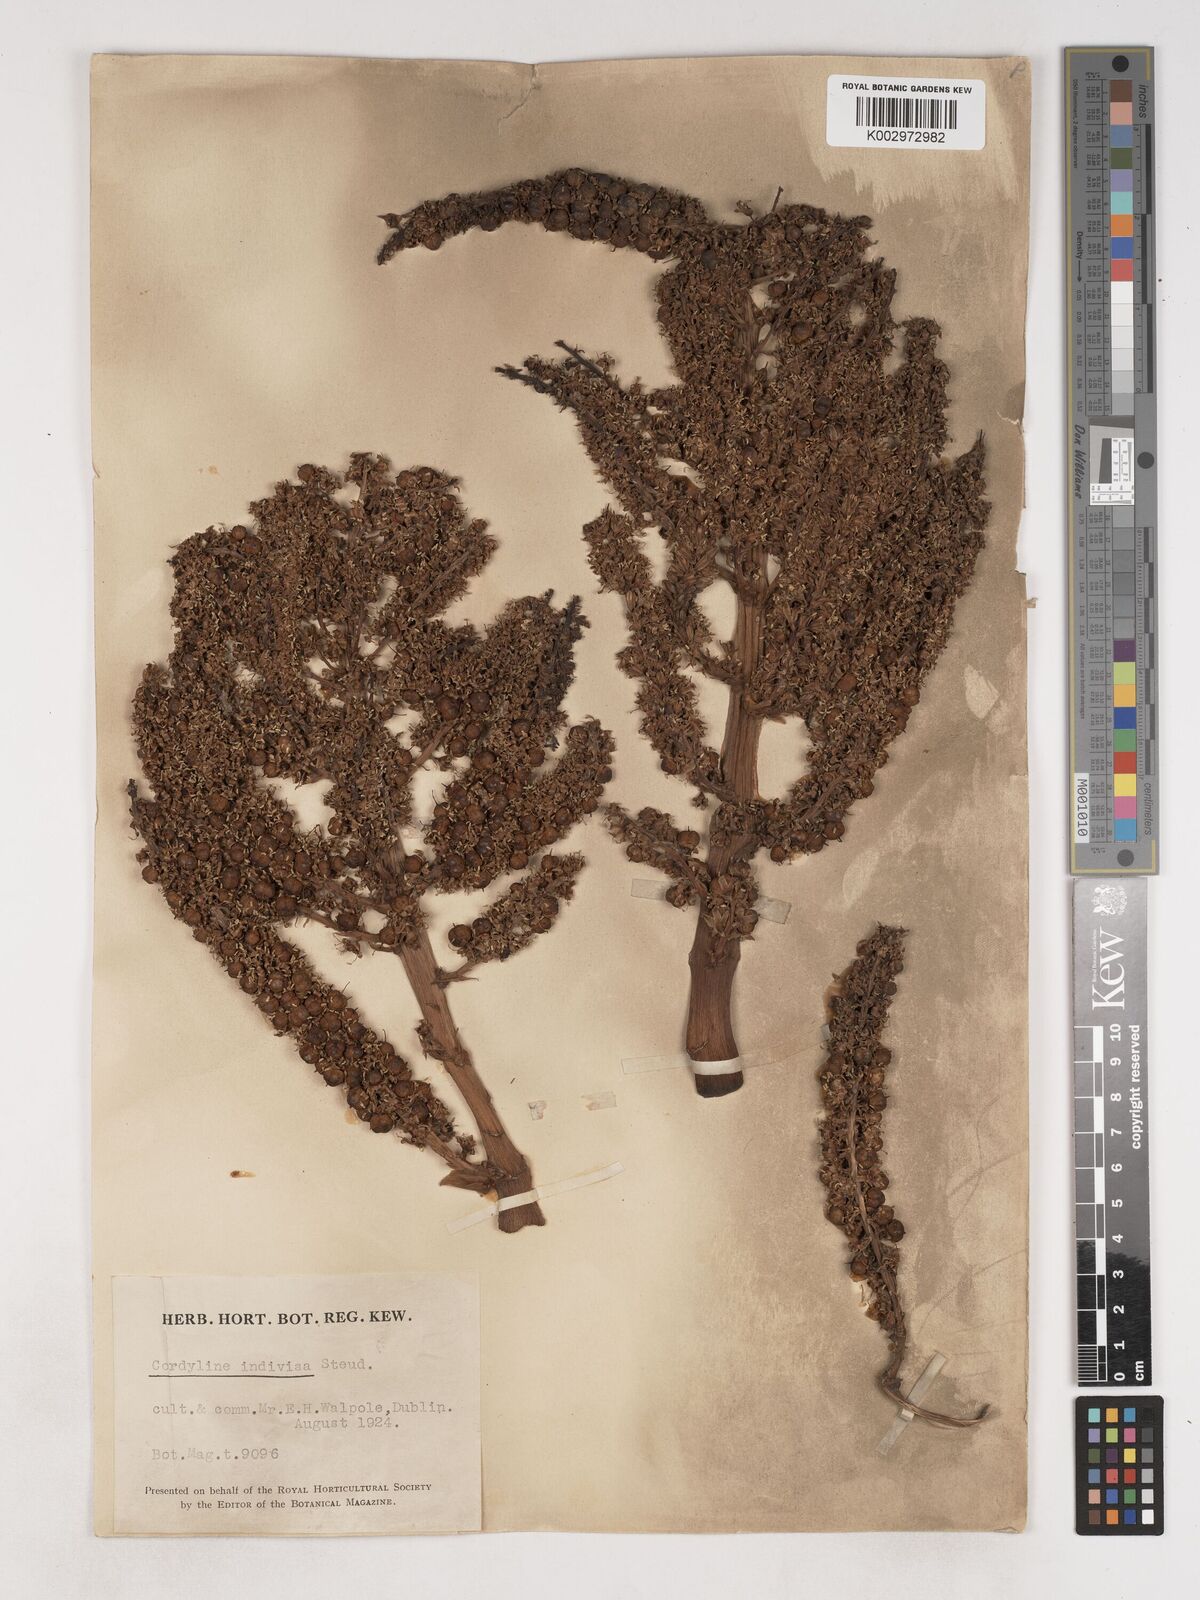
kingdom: Plantae
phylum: Tracheophyta
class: Liliopsida
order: Asparagales
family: Asparagaceae
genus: Cordyline
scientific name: Cordyline
